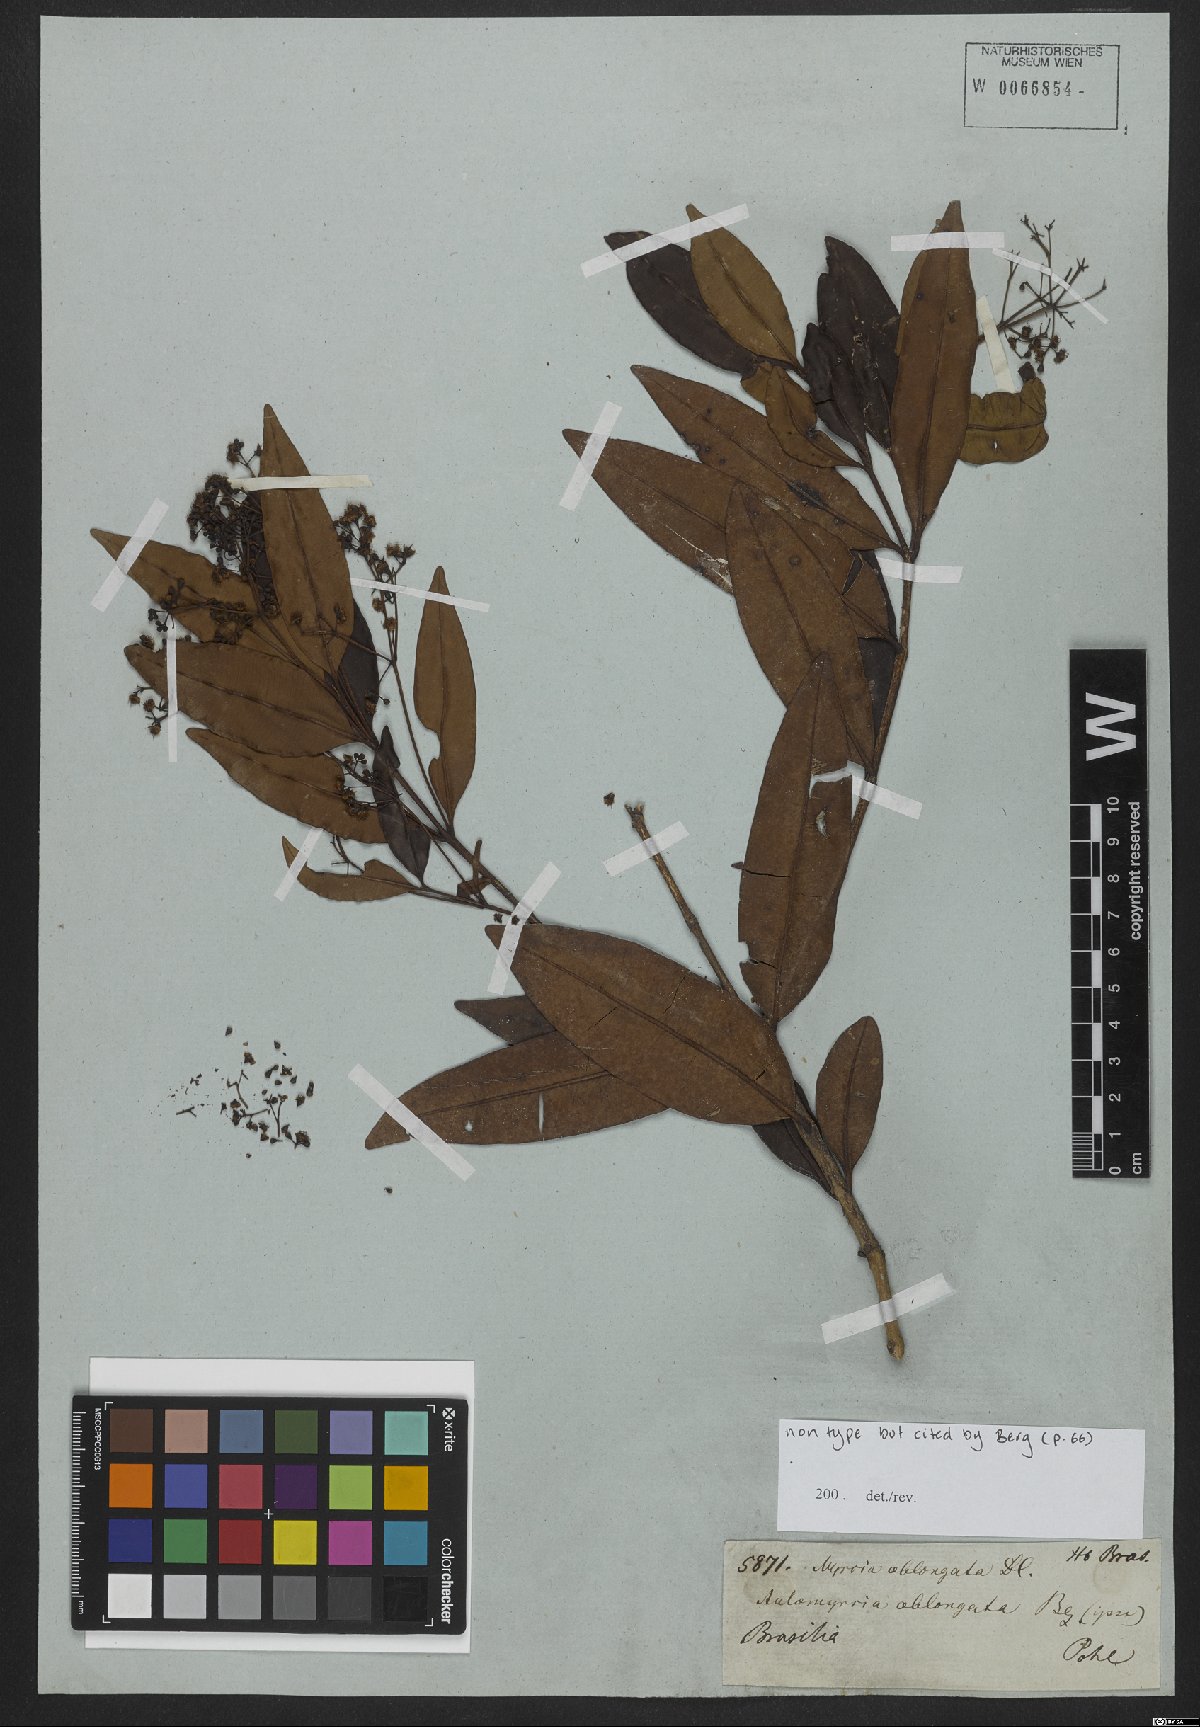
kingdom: Plantae
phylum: Tracheophyta
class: Magnoliopsida
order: Myrtales
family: Myrtaceae
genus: Myrcia
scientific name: Myrcia oblongata
